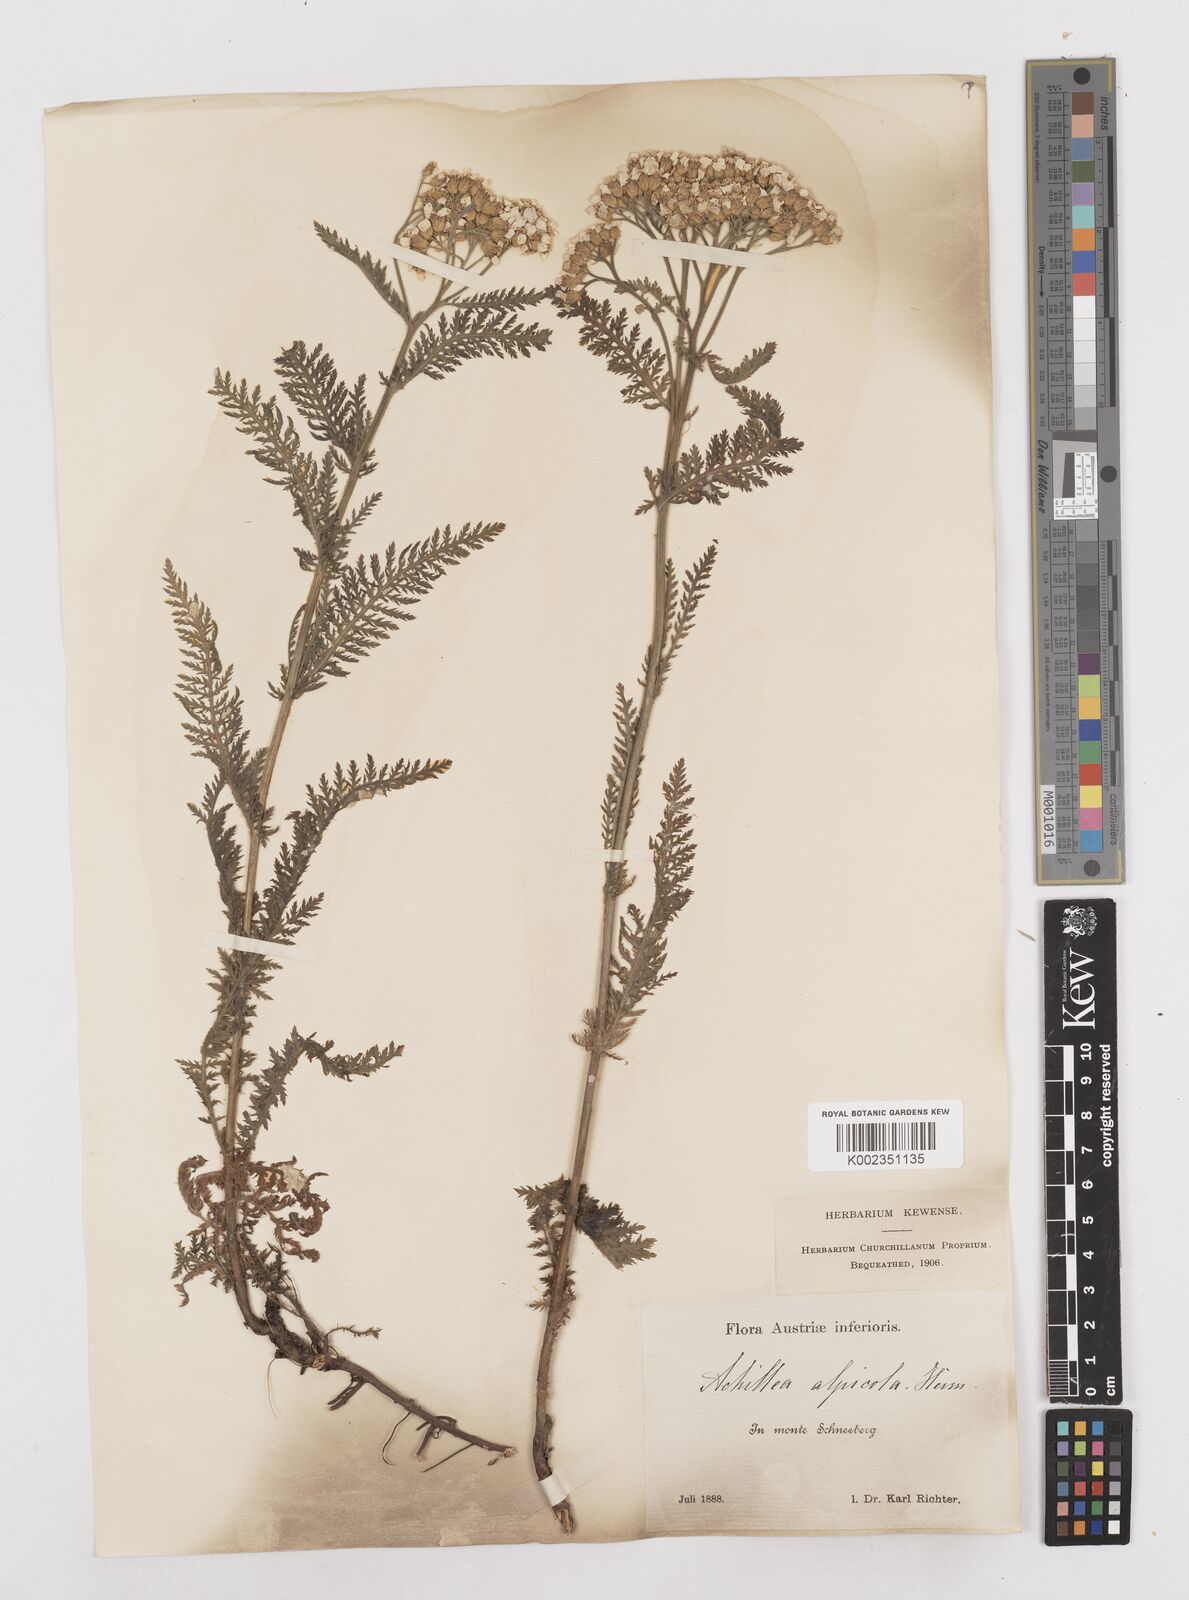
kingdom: Plantae
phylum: Tracheophyta
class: Magnoliopsida
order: Asterales
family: Asteraceae
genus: Achillea
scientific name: Achillea millefolium
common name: Yarrow
